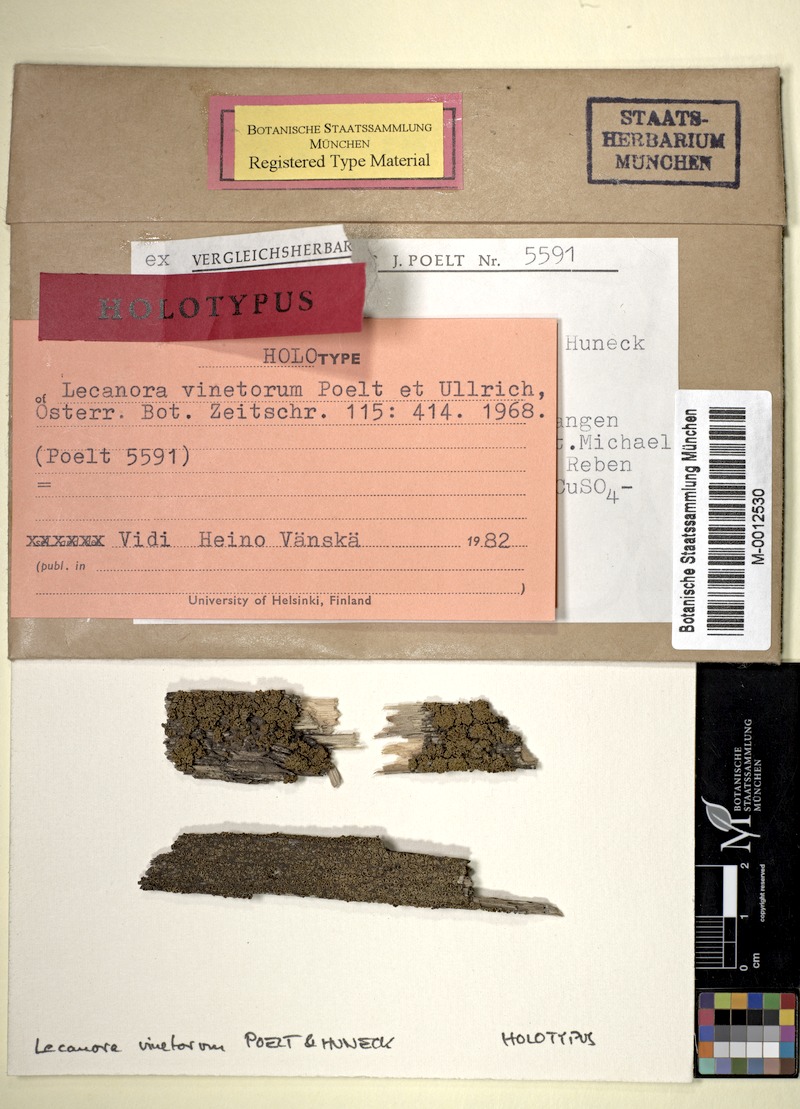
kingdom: Fungi
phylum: Ascomycota
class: Lecanoromycetes
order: Lecanorales
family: Lecanoraceae
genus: Lecanora
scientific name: Lecanora vinetorum
